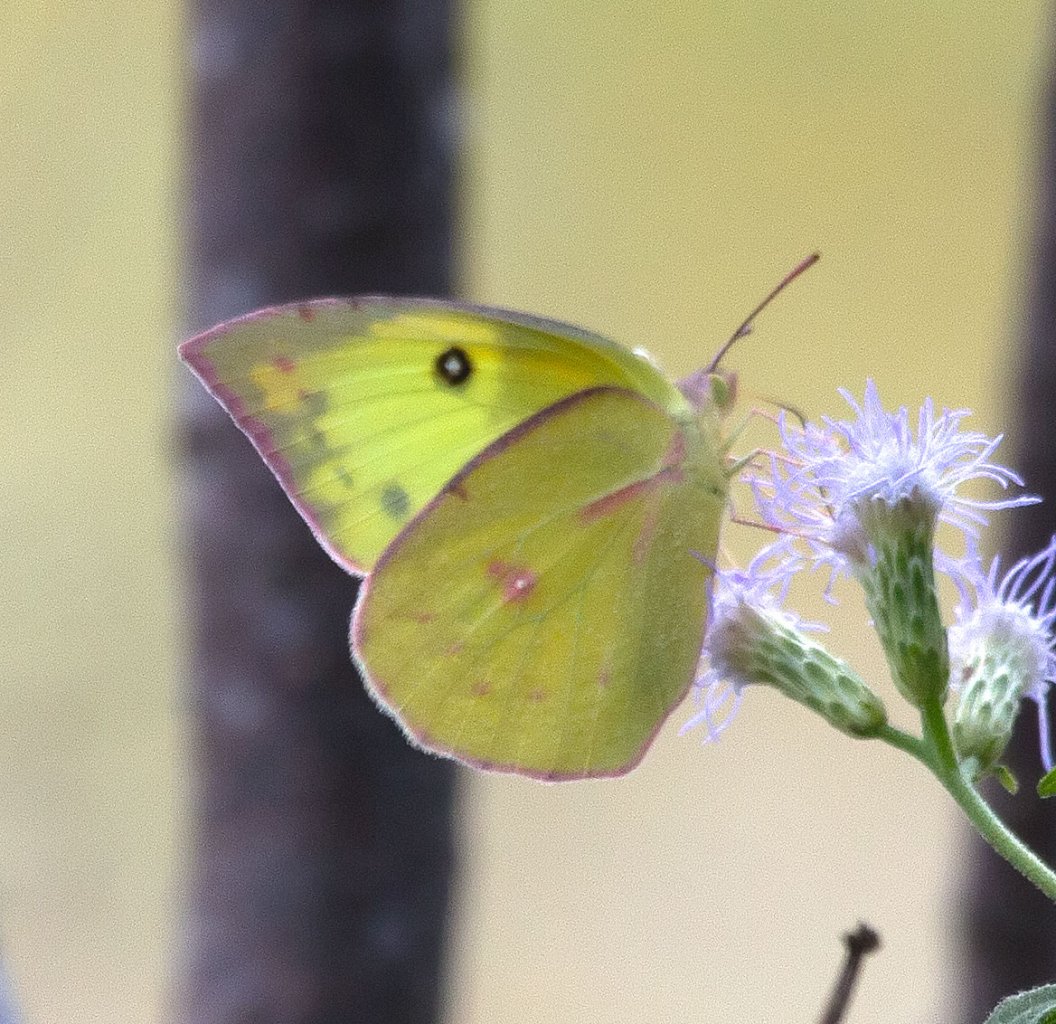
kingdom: Animalia
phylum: Arthropoda
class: Insecta
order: Lepidoptera
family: Pieridae
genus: Colias
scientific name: Colias philodice
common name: Clouded Sulphur
